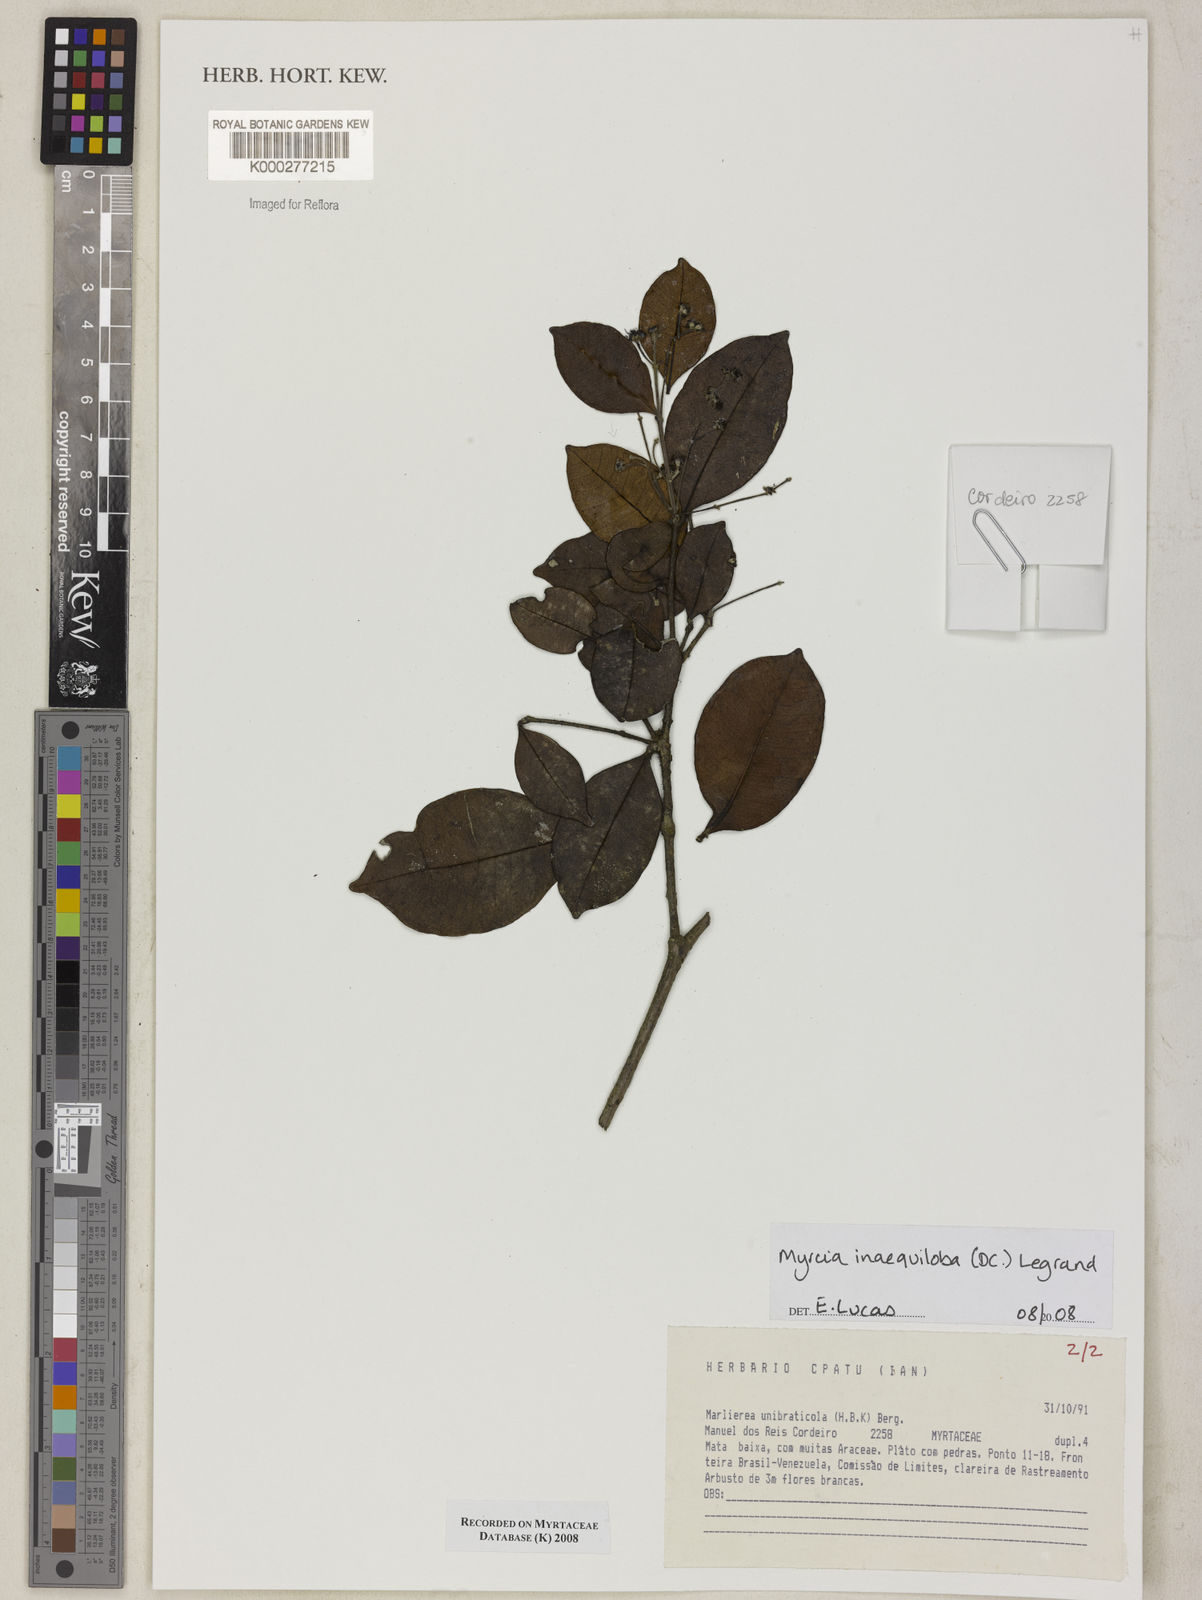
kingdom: Plantae
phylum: Tracheophyta
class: Magnoliopsida
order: Myrtales
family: Myrtaceae
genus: Myrcia
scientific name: Myrcia inaequiloba
